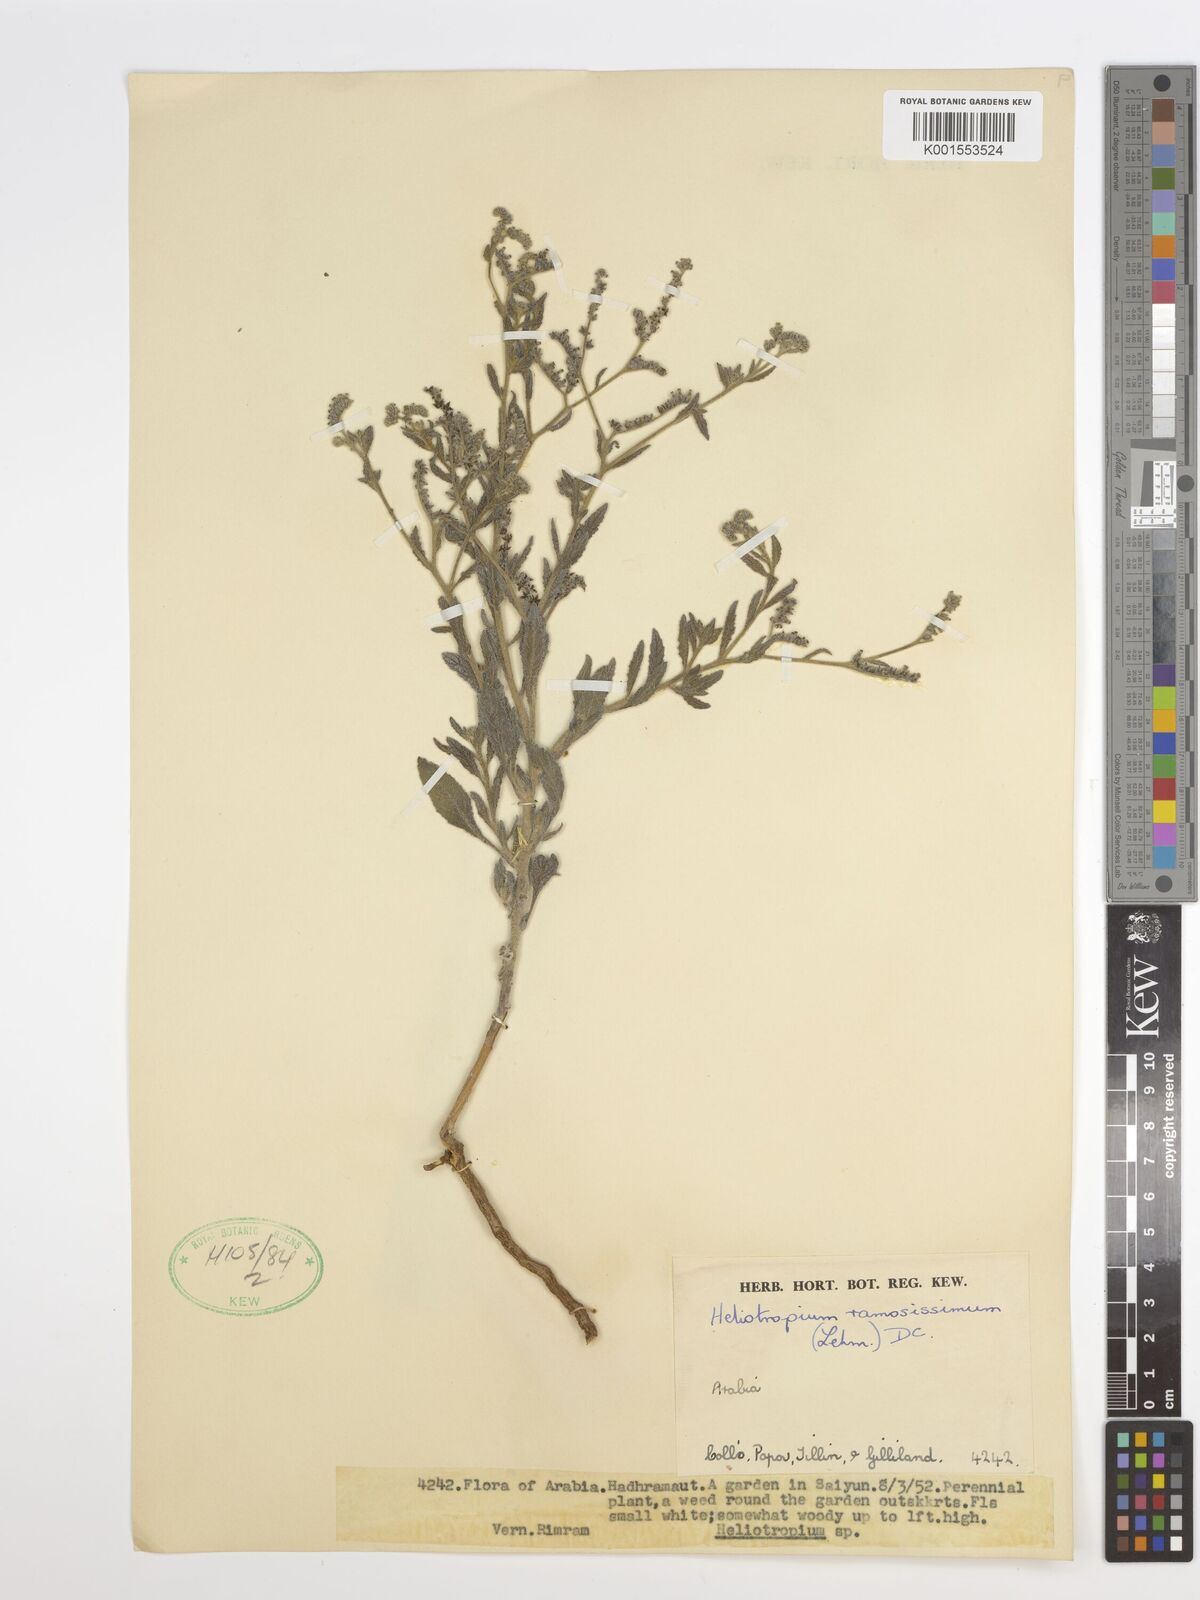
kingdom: Plantae
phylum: Tracheophyta
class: Magnoliopsida
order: Boraginales
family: Heliotropiaceae
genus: Heliotropium
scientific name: Heliotropium ramosissimum
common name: Wavy heliotrope
